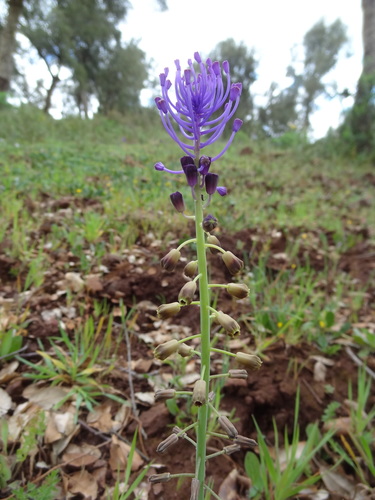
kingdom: Plantae
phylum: Tracheophyta
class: Liliopsida
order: Asparagales
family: Asparagaceae
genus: Muscari
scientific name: Muscari comosum
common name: Tassel hyacinth
